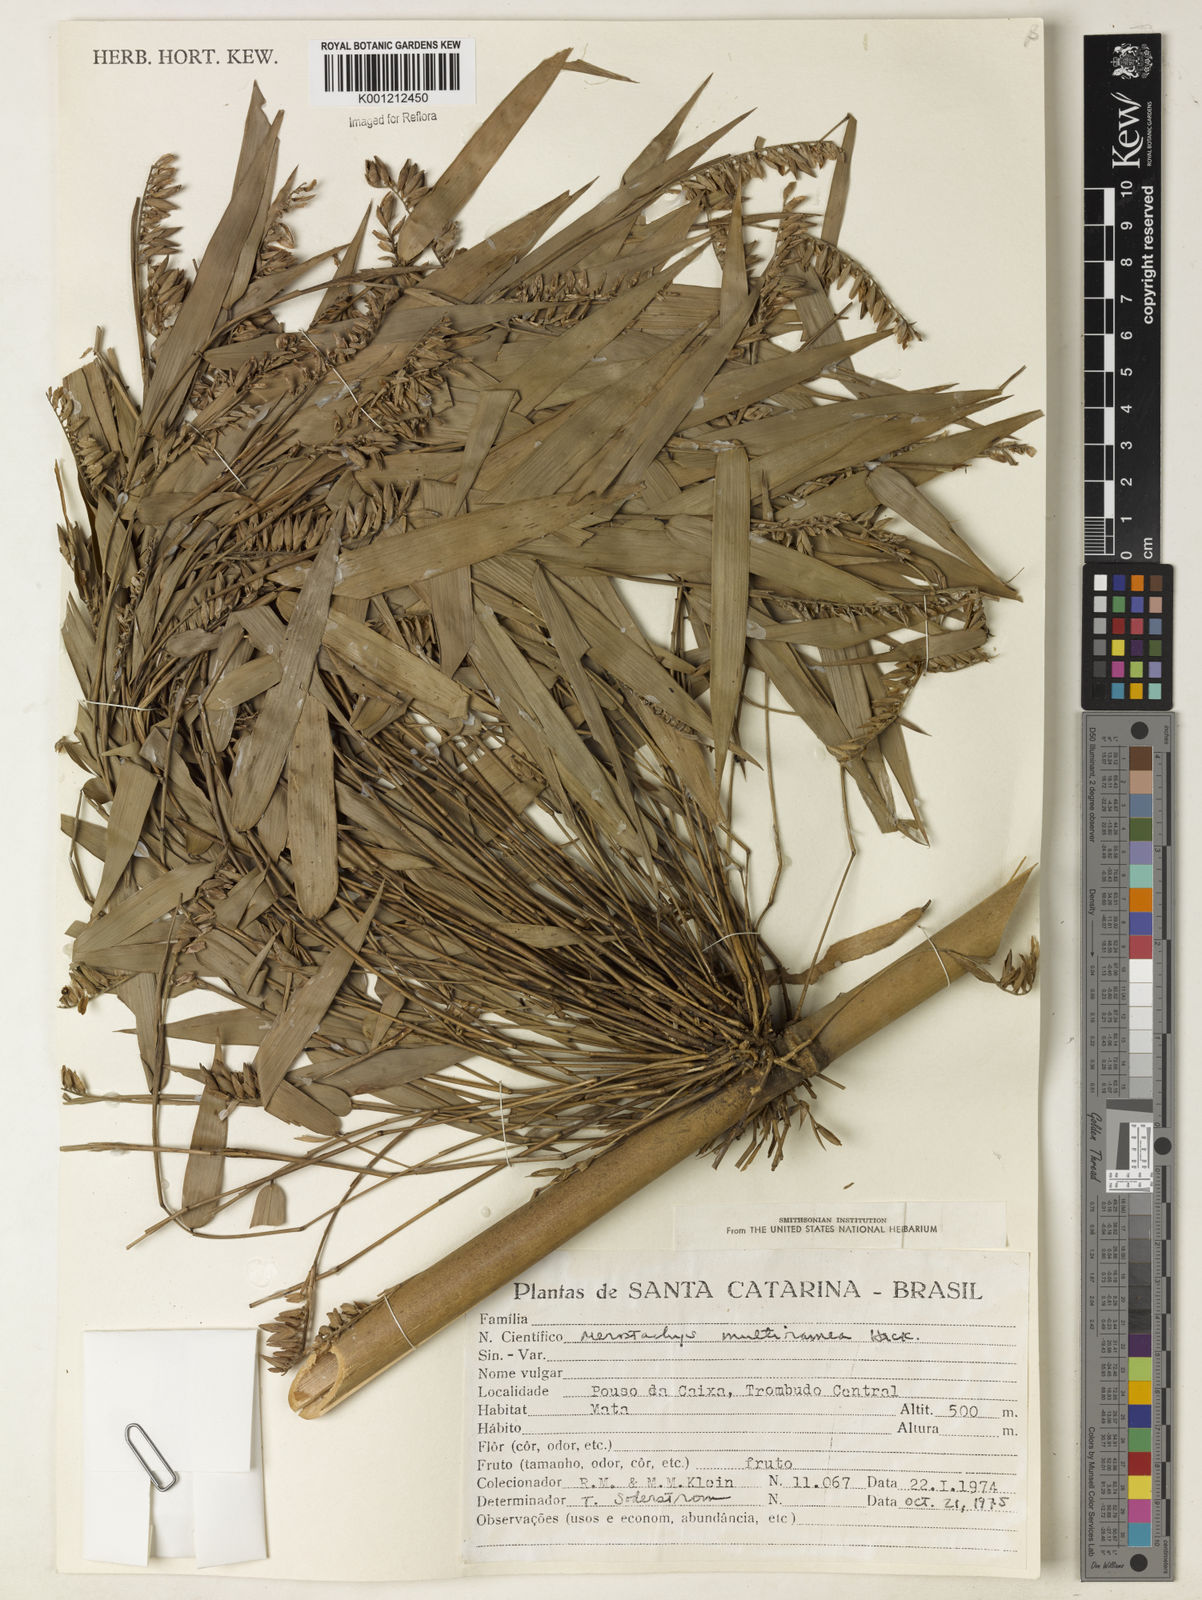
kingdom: Plantae
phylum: Tracheophyta
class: Liliopsida
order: Poales
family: Poaceae
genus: Merostachys
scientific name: Merostachys multiramea
